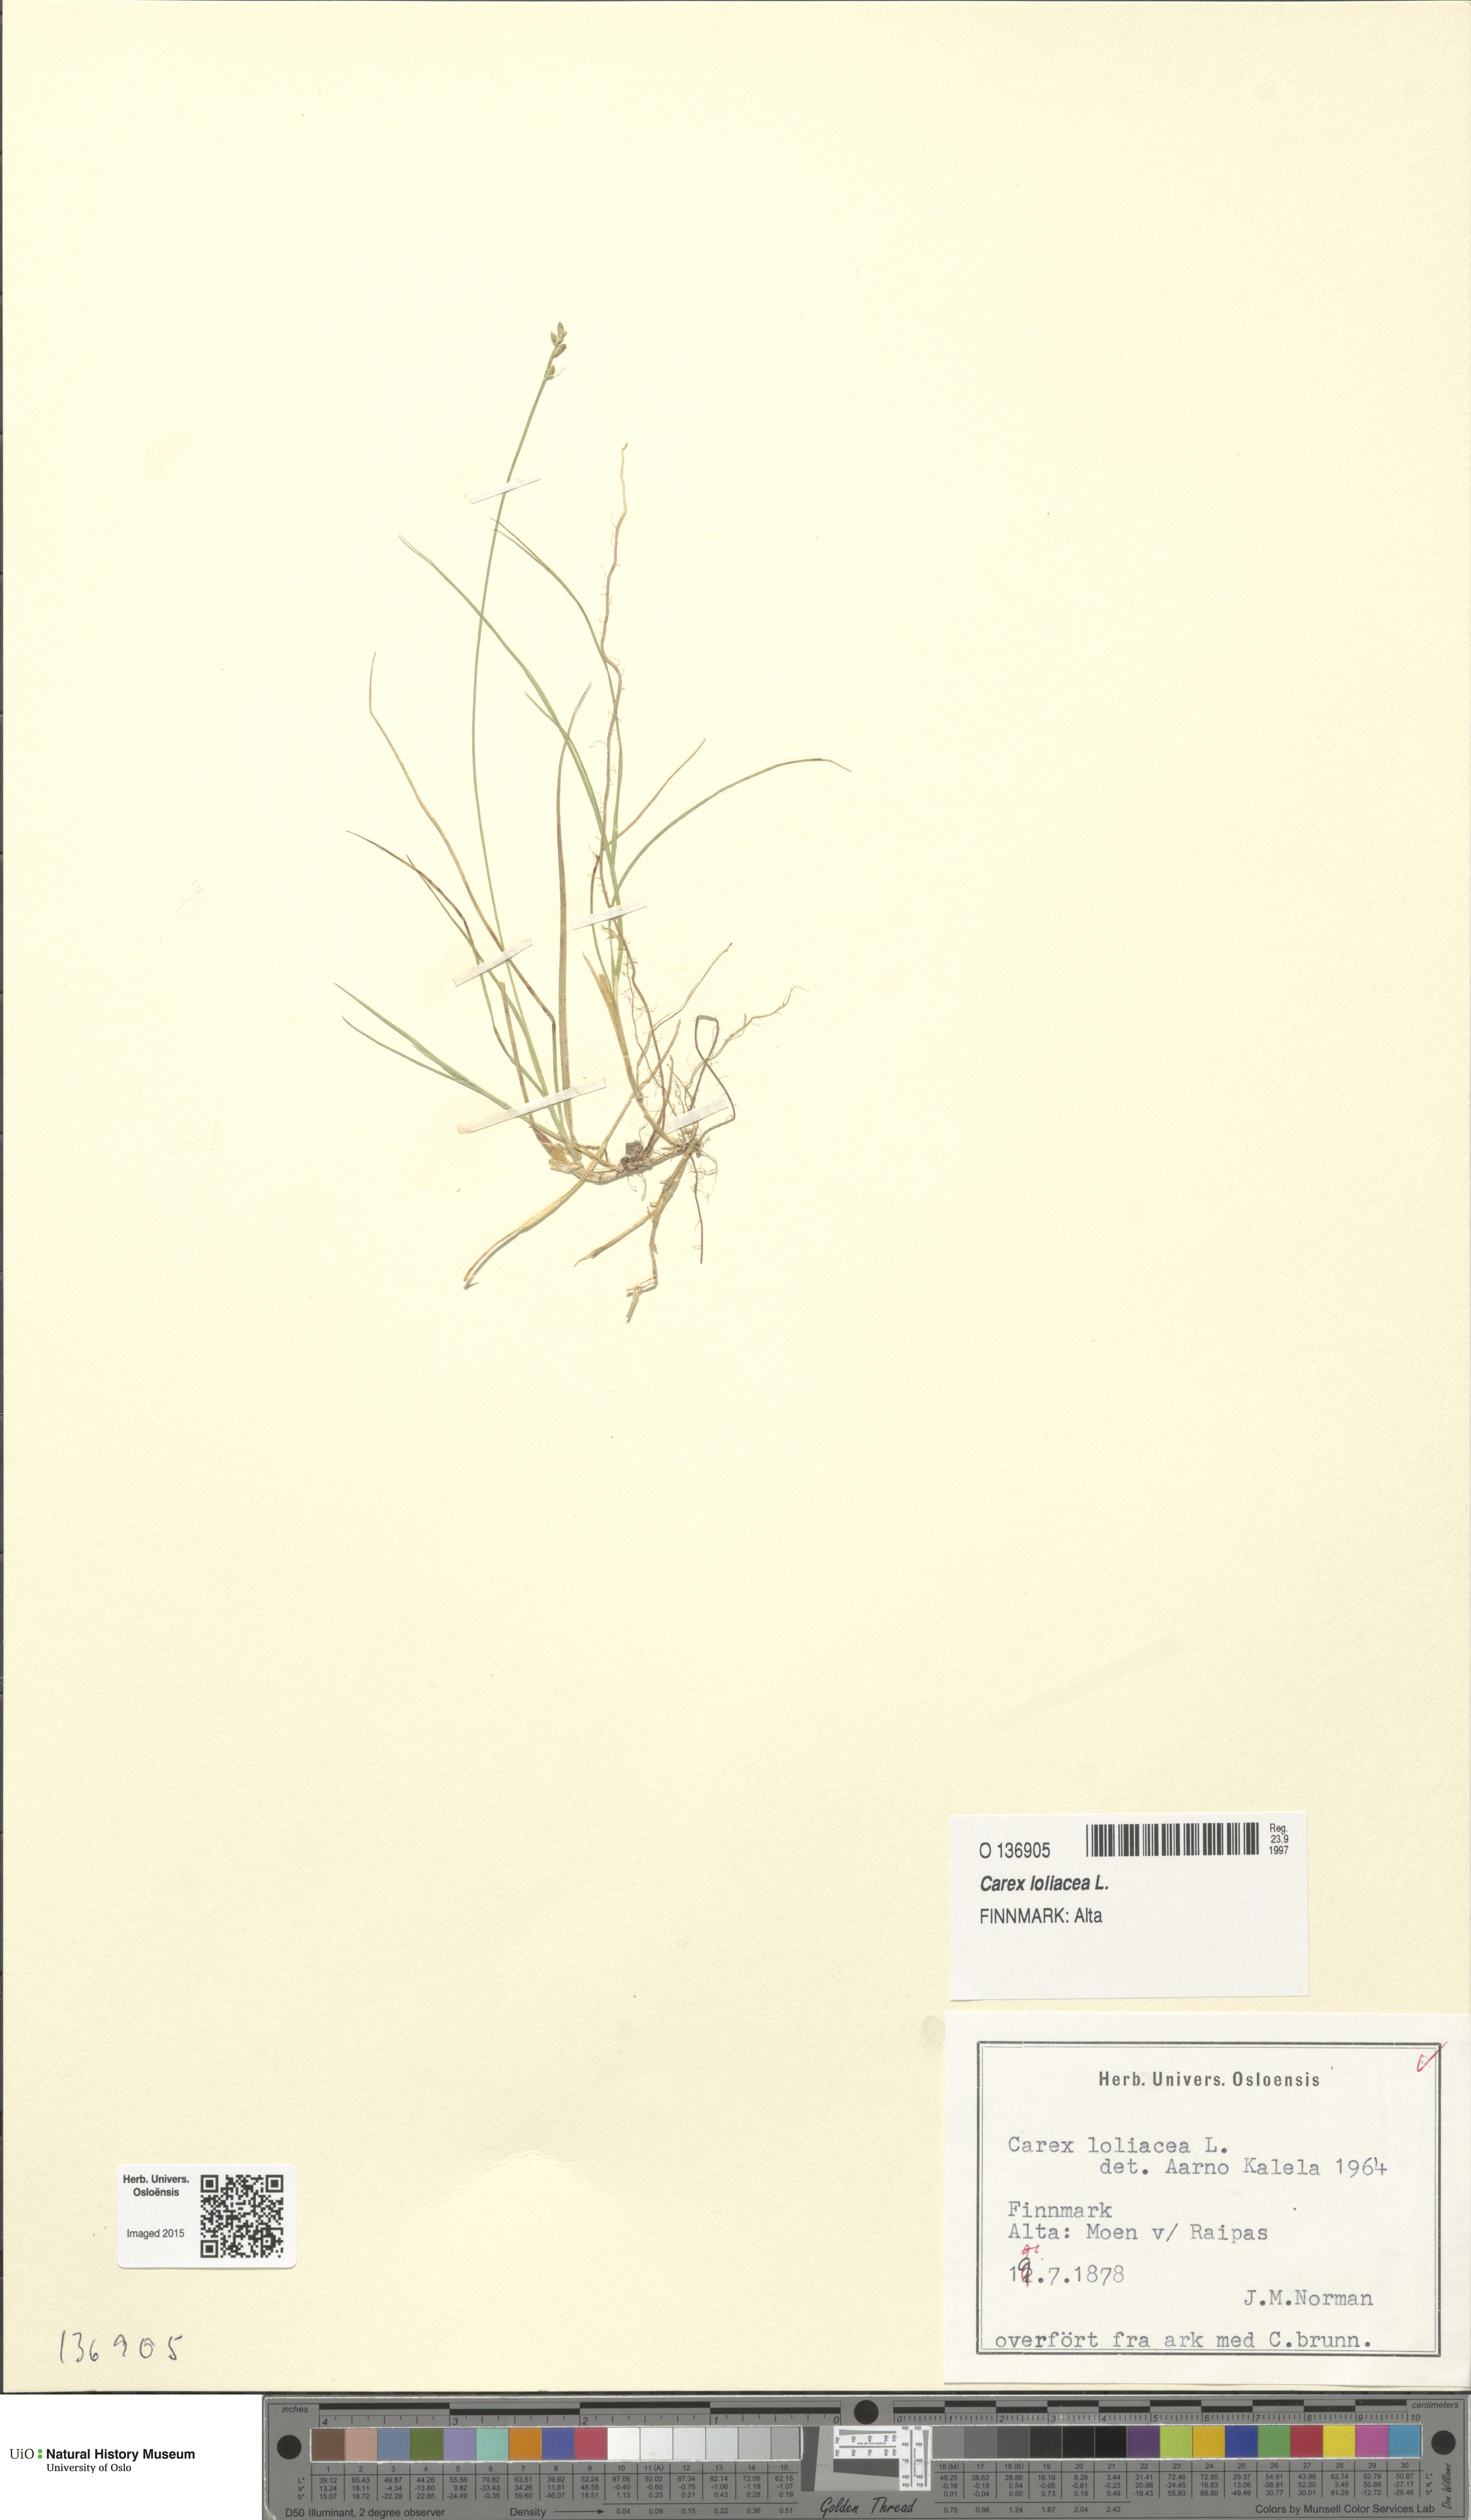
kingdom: Plantae
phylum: Tracheophyta
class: Liliopsida
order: Poales
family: Cyperaceae
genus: Carex
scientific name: Carex loliacea
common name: Ryegrass sedge
